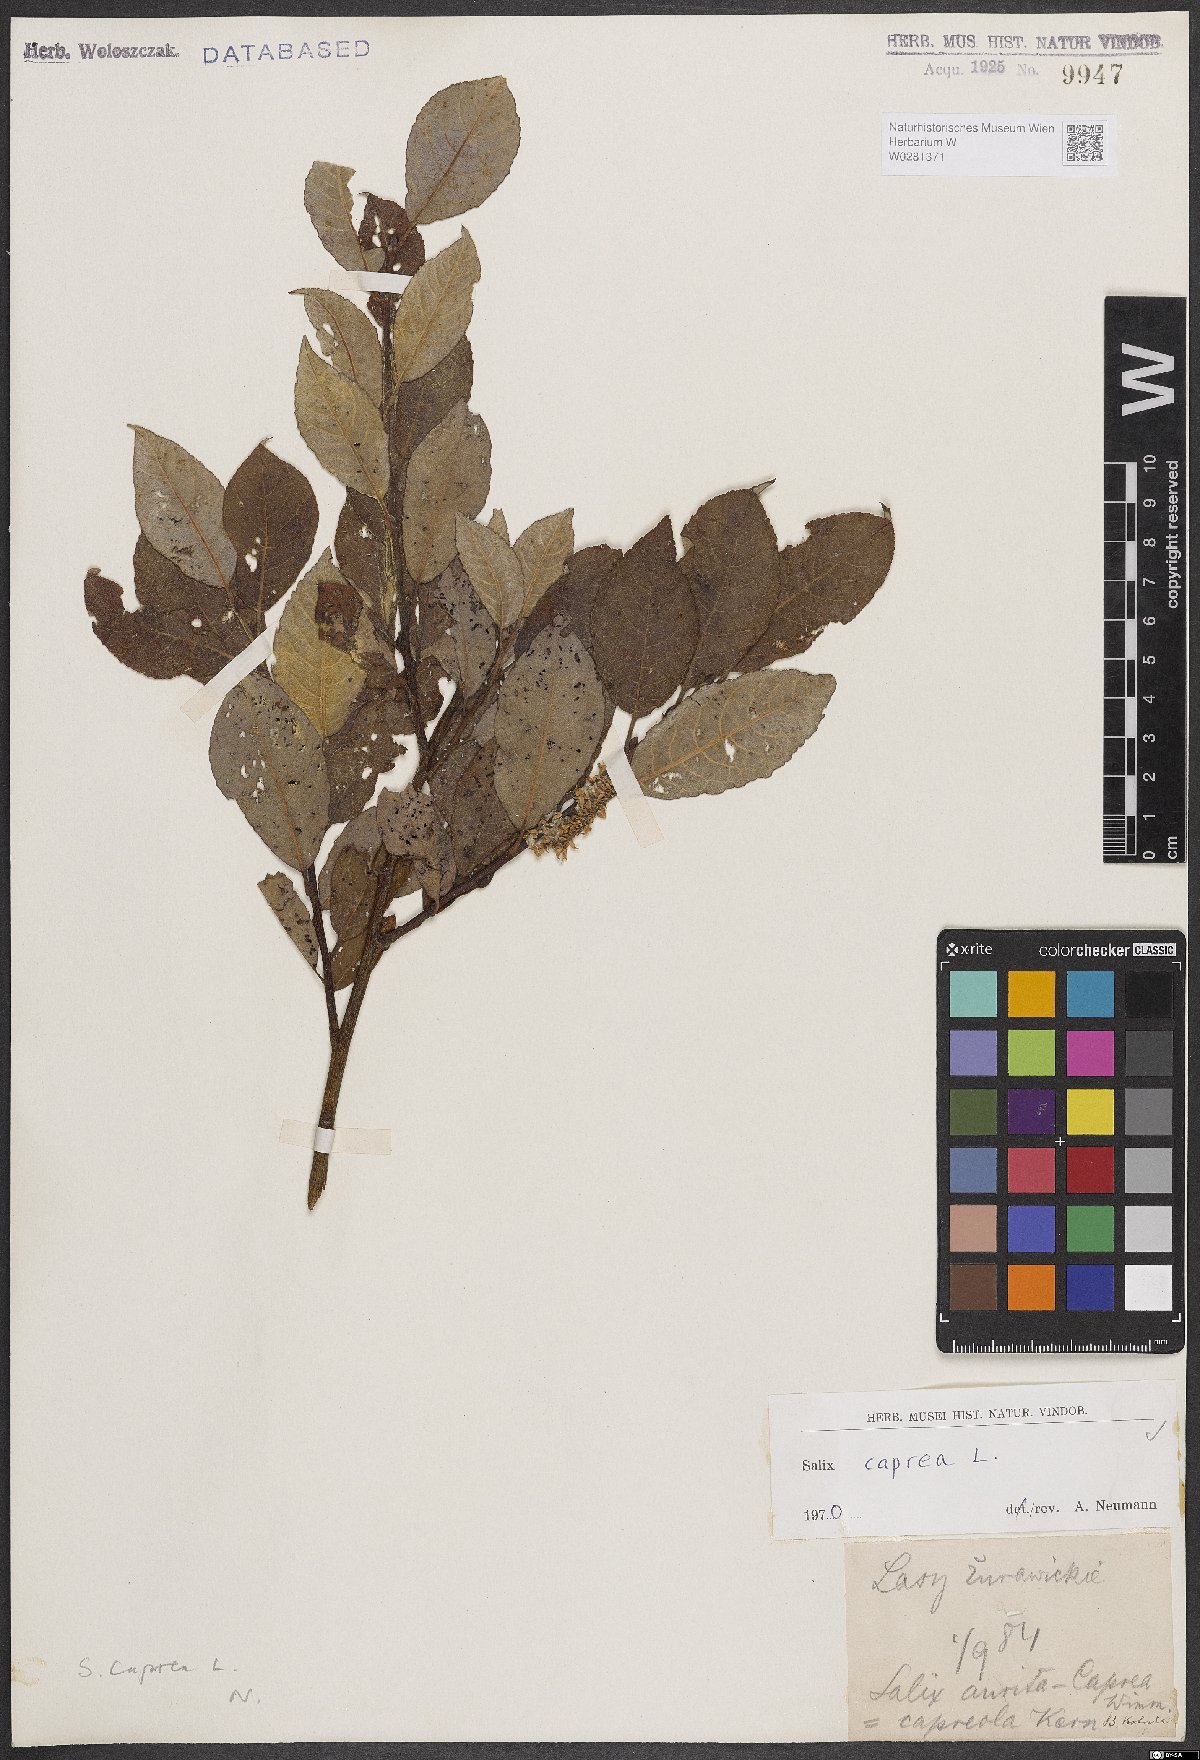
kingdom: Plantae
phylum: Tracheophyta
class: Magnoliopsida
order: Malpighiales
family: Salicaceae
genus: Salix
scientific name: Salix caprea
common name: Goat willow
